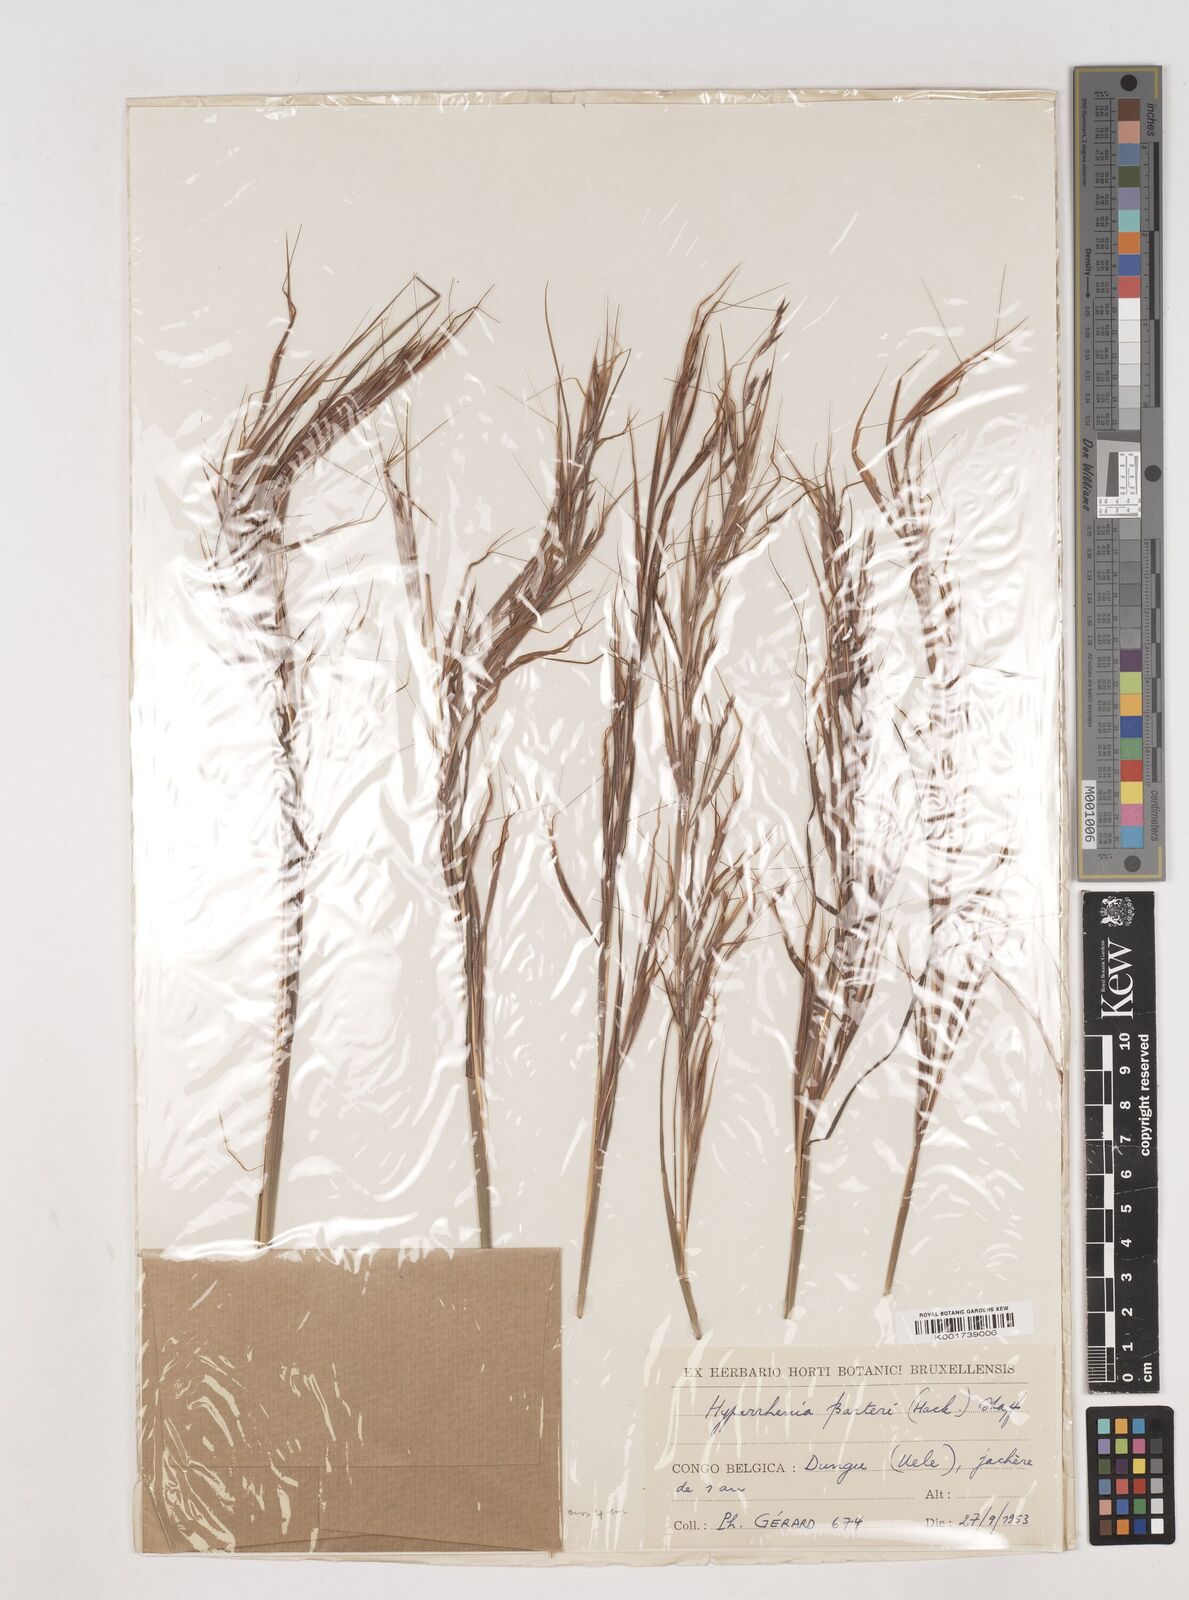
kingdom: Plantae
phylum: Tracheophyta
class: Liliopsida
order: Poales
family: Poaceae
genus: Hyparrhenia
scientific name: Hyparrhenia barteri
